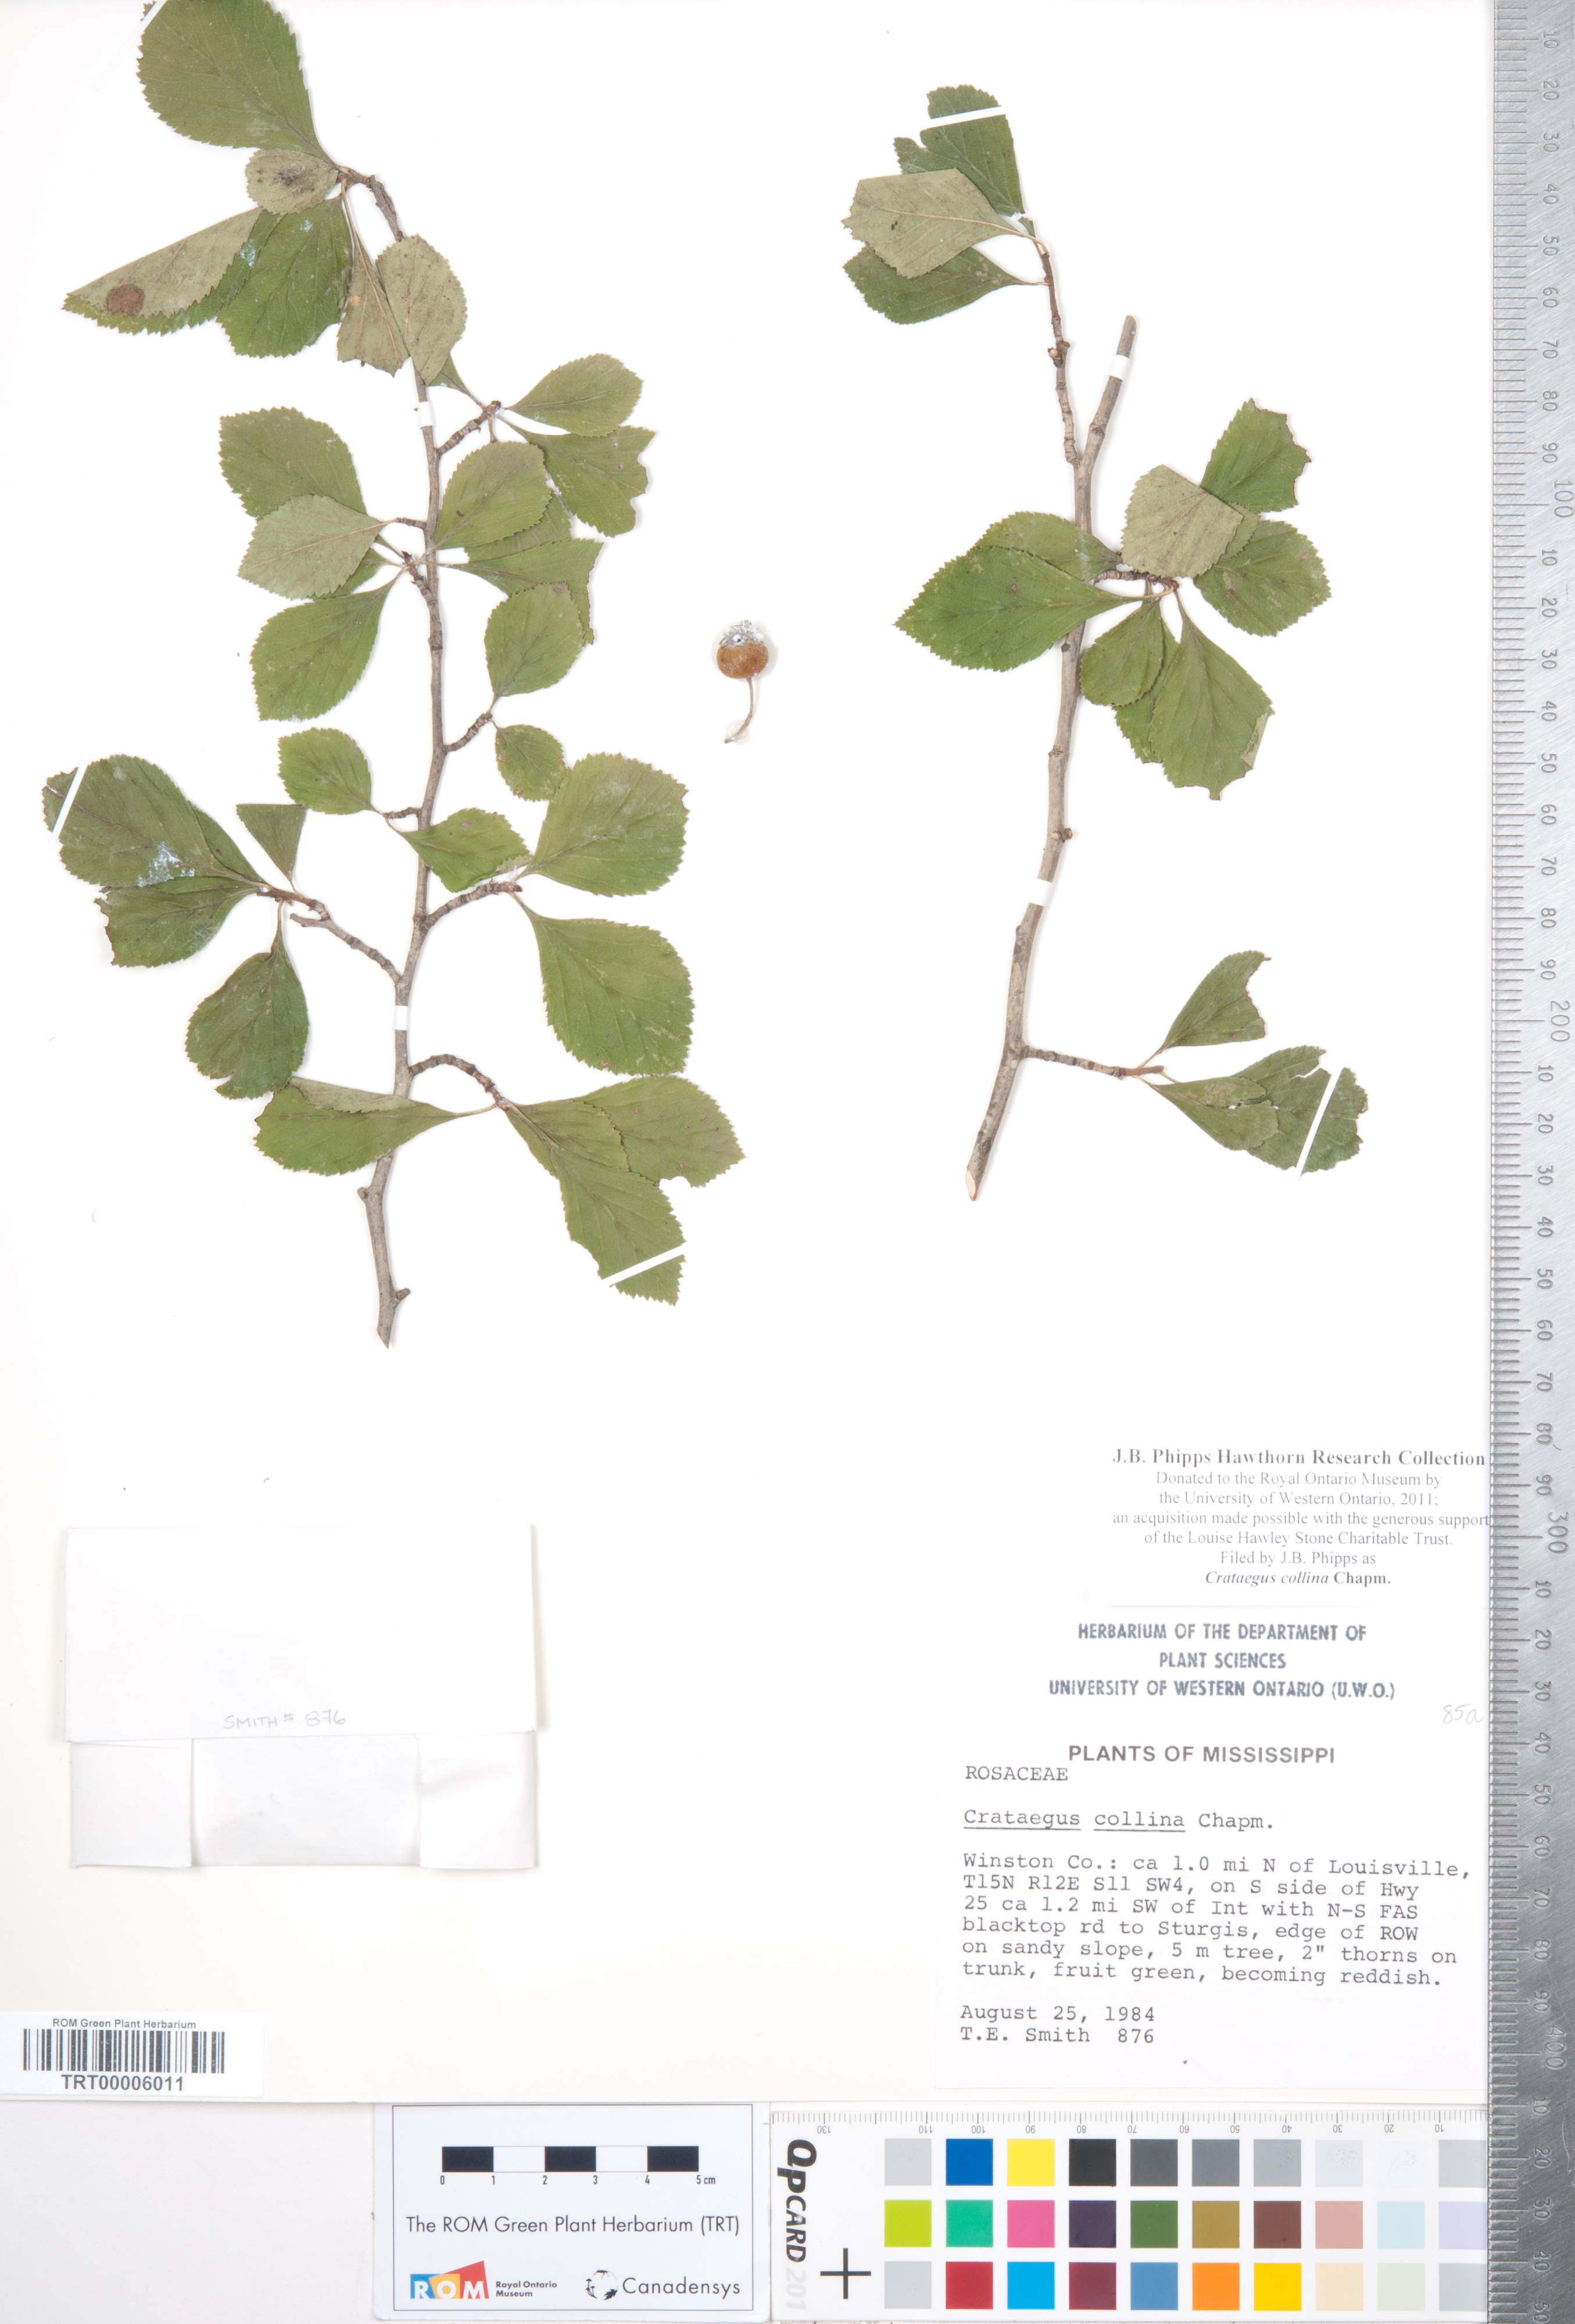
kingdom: Plantae
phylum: Tracheophyta
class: Magnoliopsida
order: Rosales
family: Rosaceae
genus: Crataegus
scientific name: Crataegus collina
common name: Hillside hawthorn
